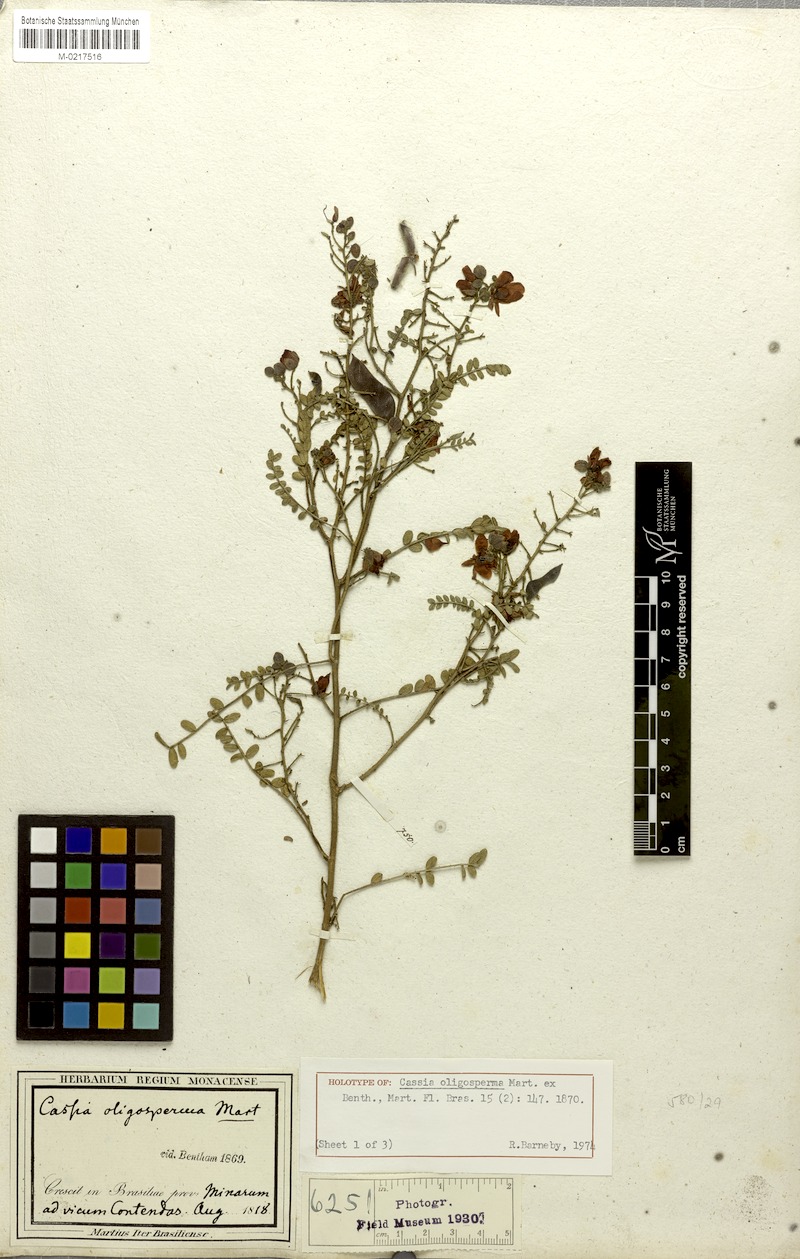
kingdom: Plantae
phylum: Tracheophyta
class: Magnoliopsida
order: Fabales
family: Fabaceae
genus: Chamaecrista
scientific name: Chamaecrista oligosperma
